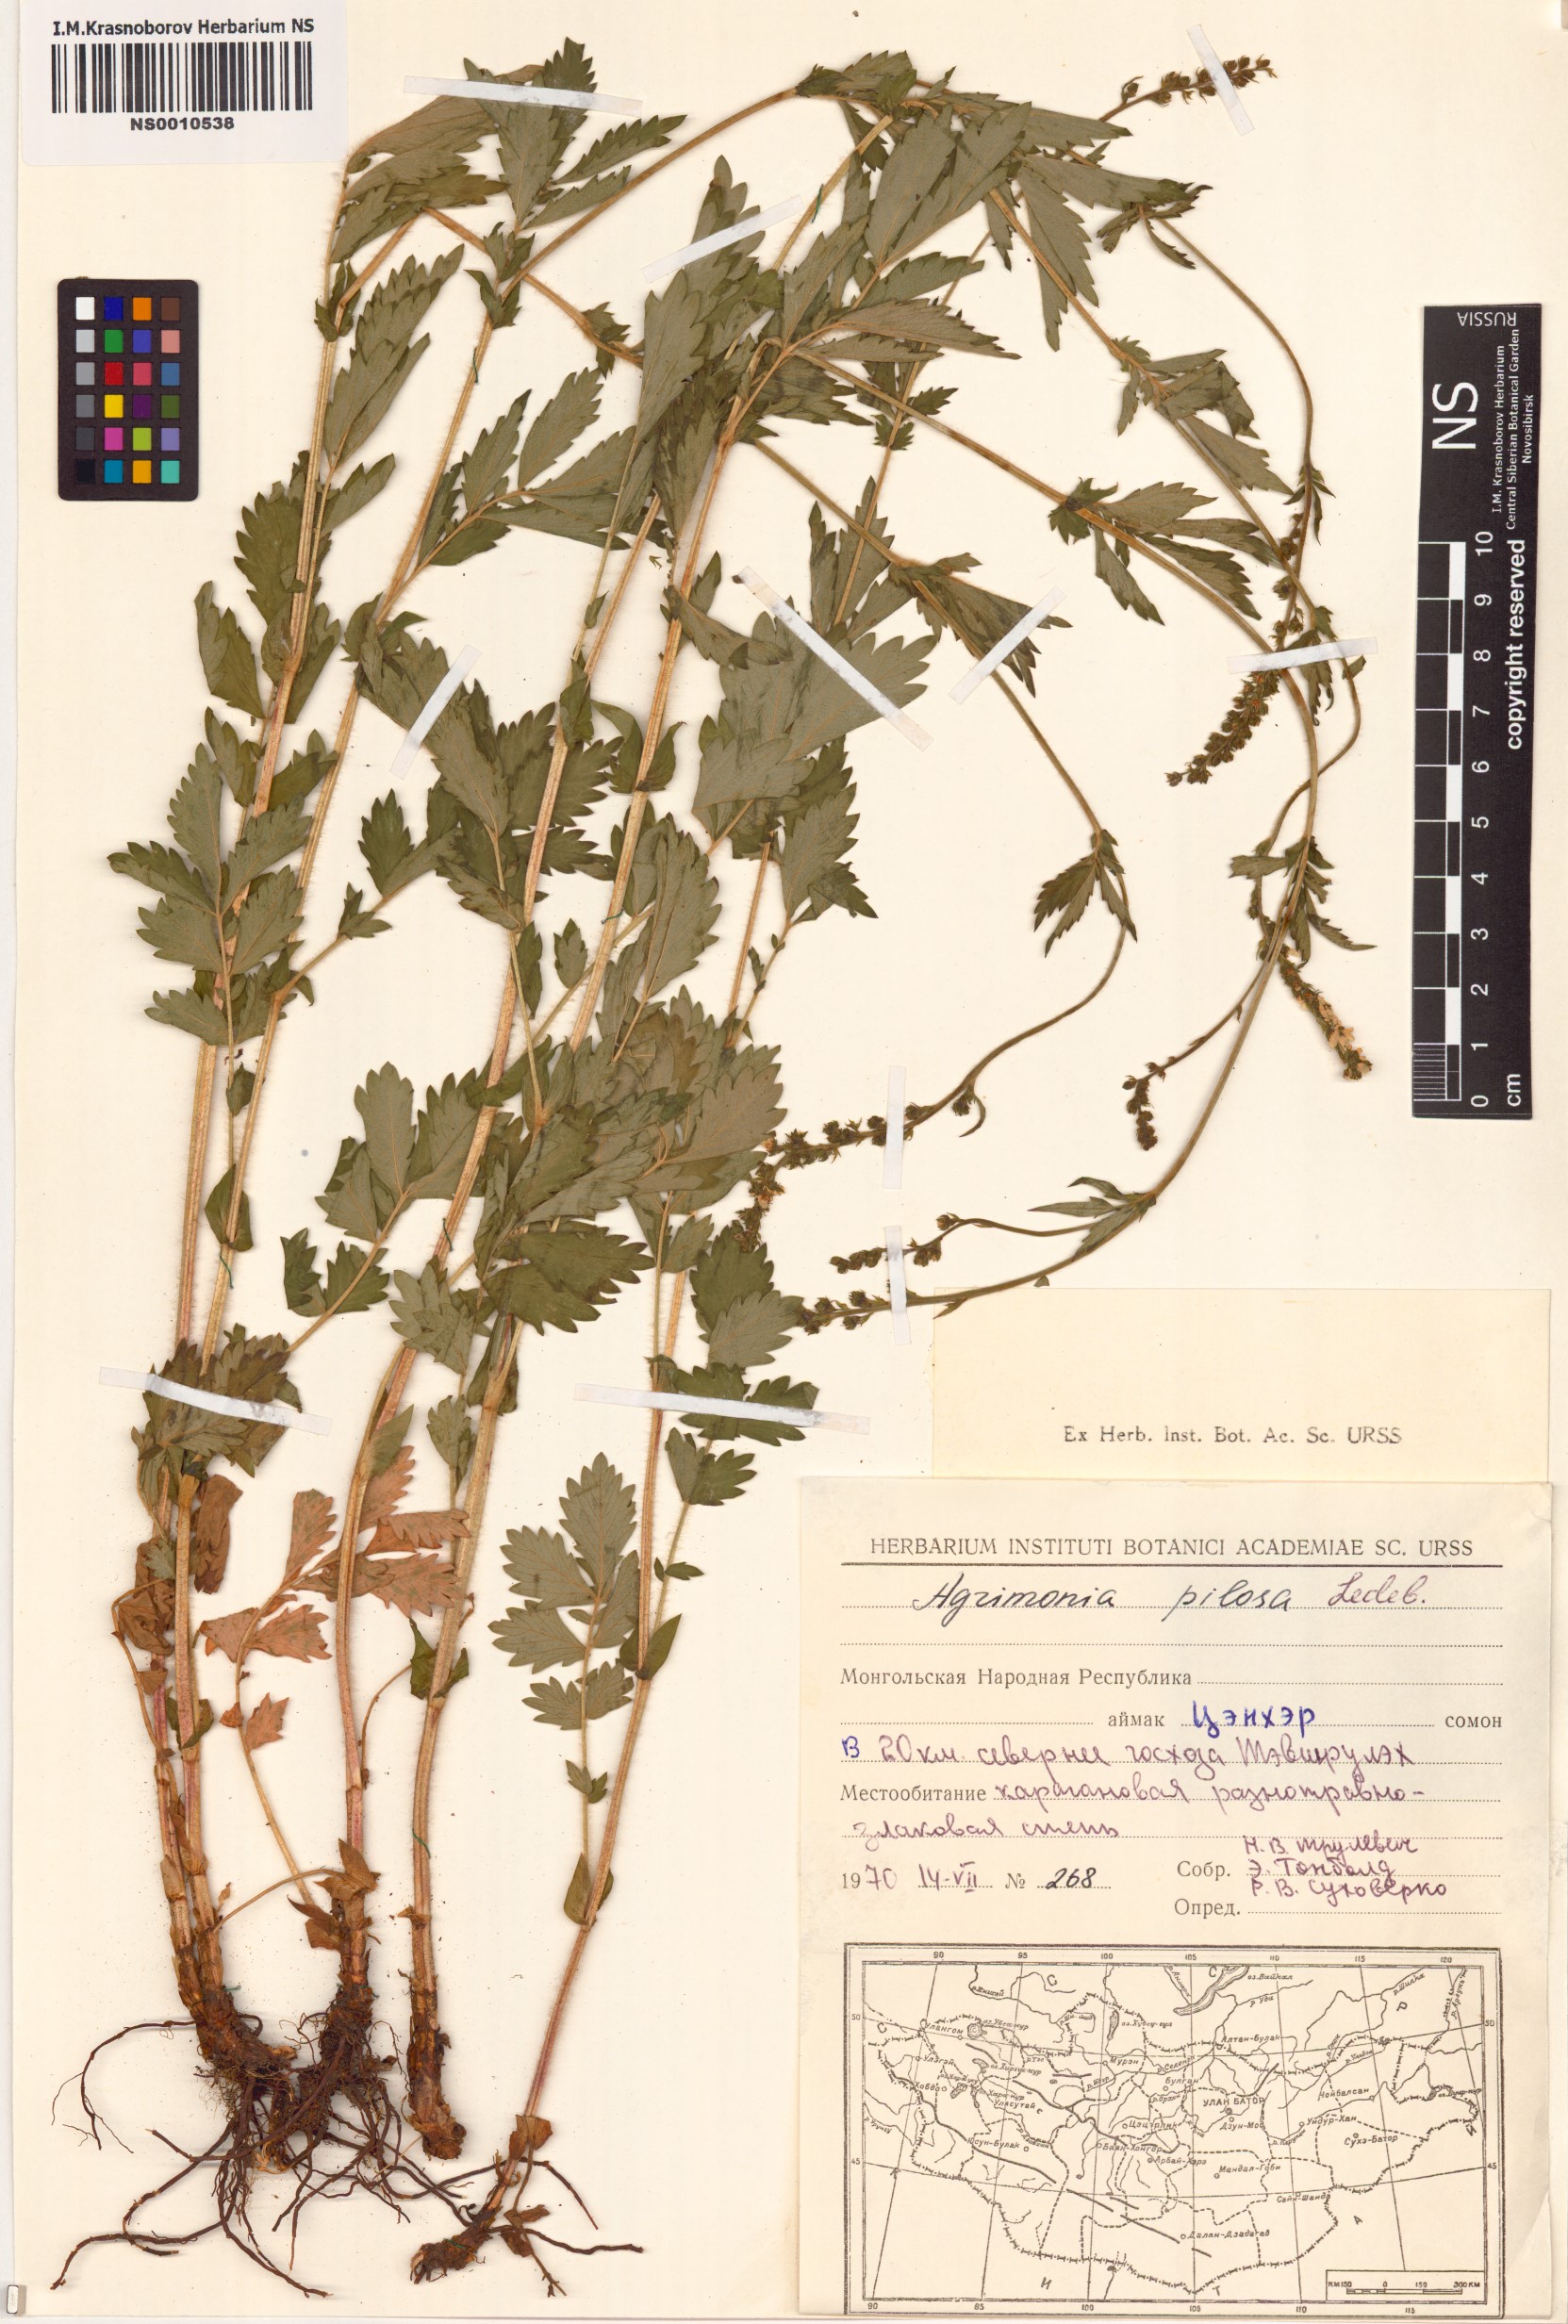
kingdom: Plantae
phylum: Tracheophyta
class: Magnoliopsida
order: Rosales
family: Rosaceae
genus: Agrimonia
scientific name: Agrimonia pilosa
